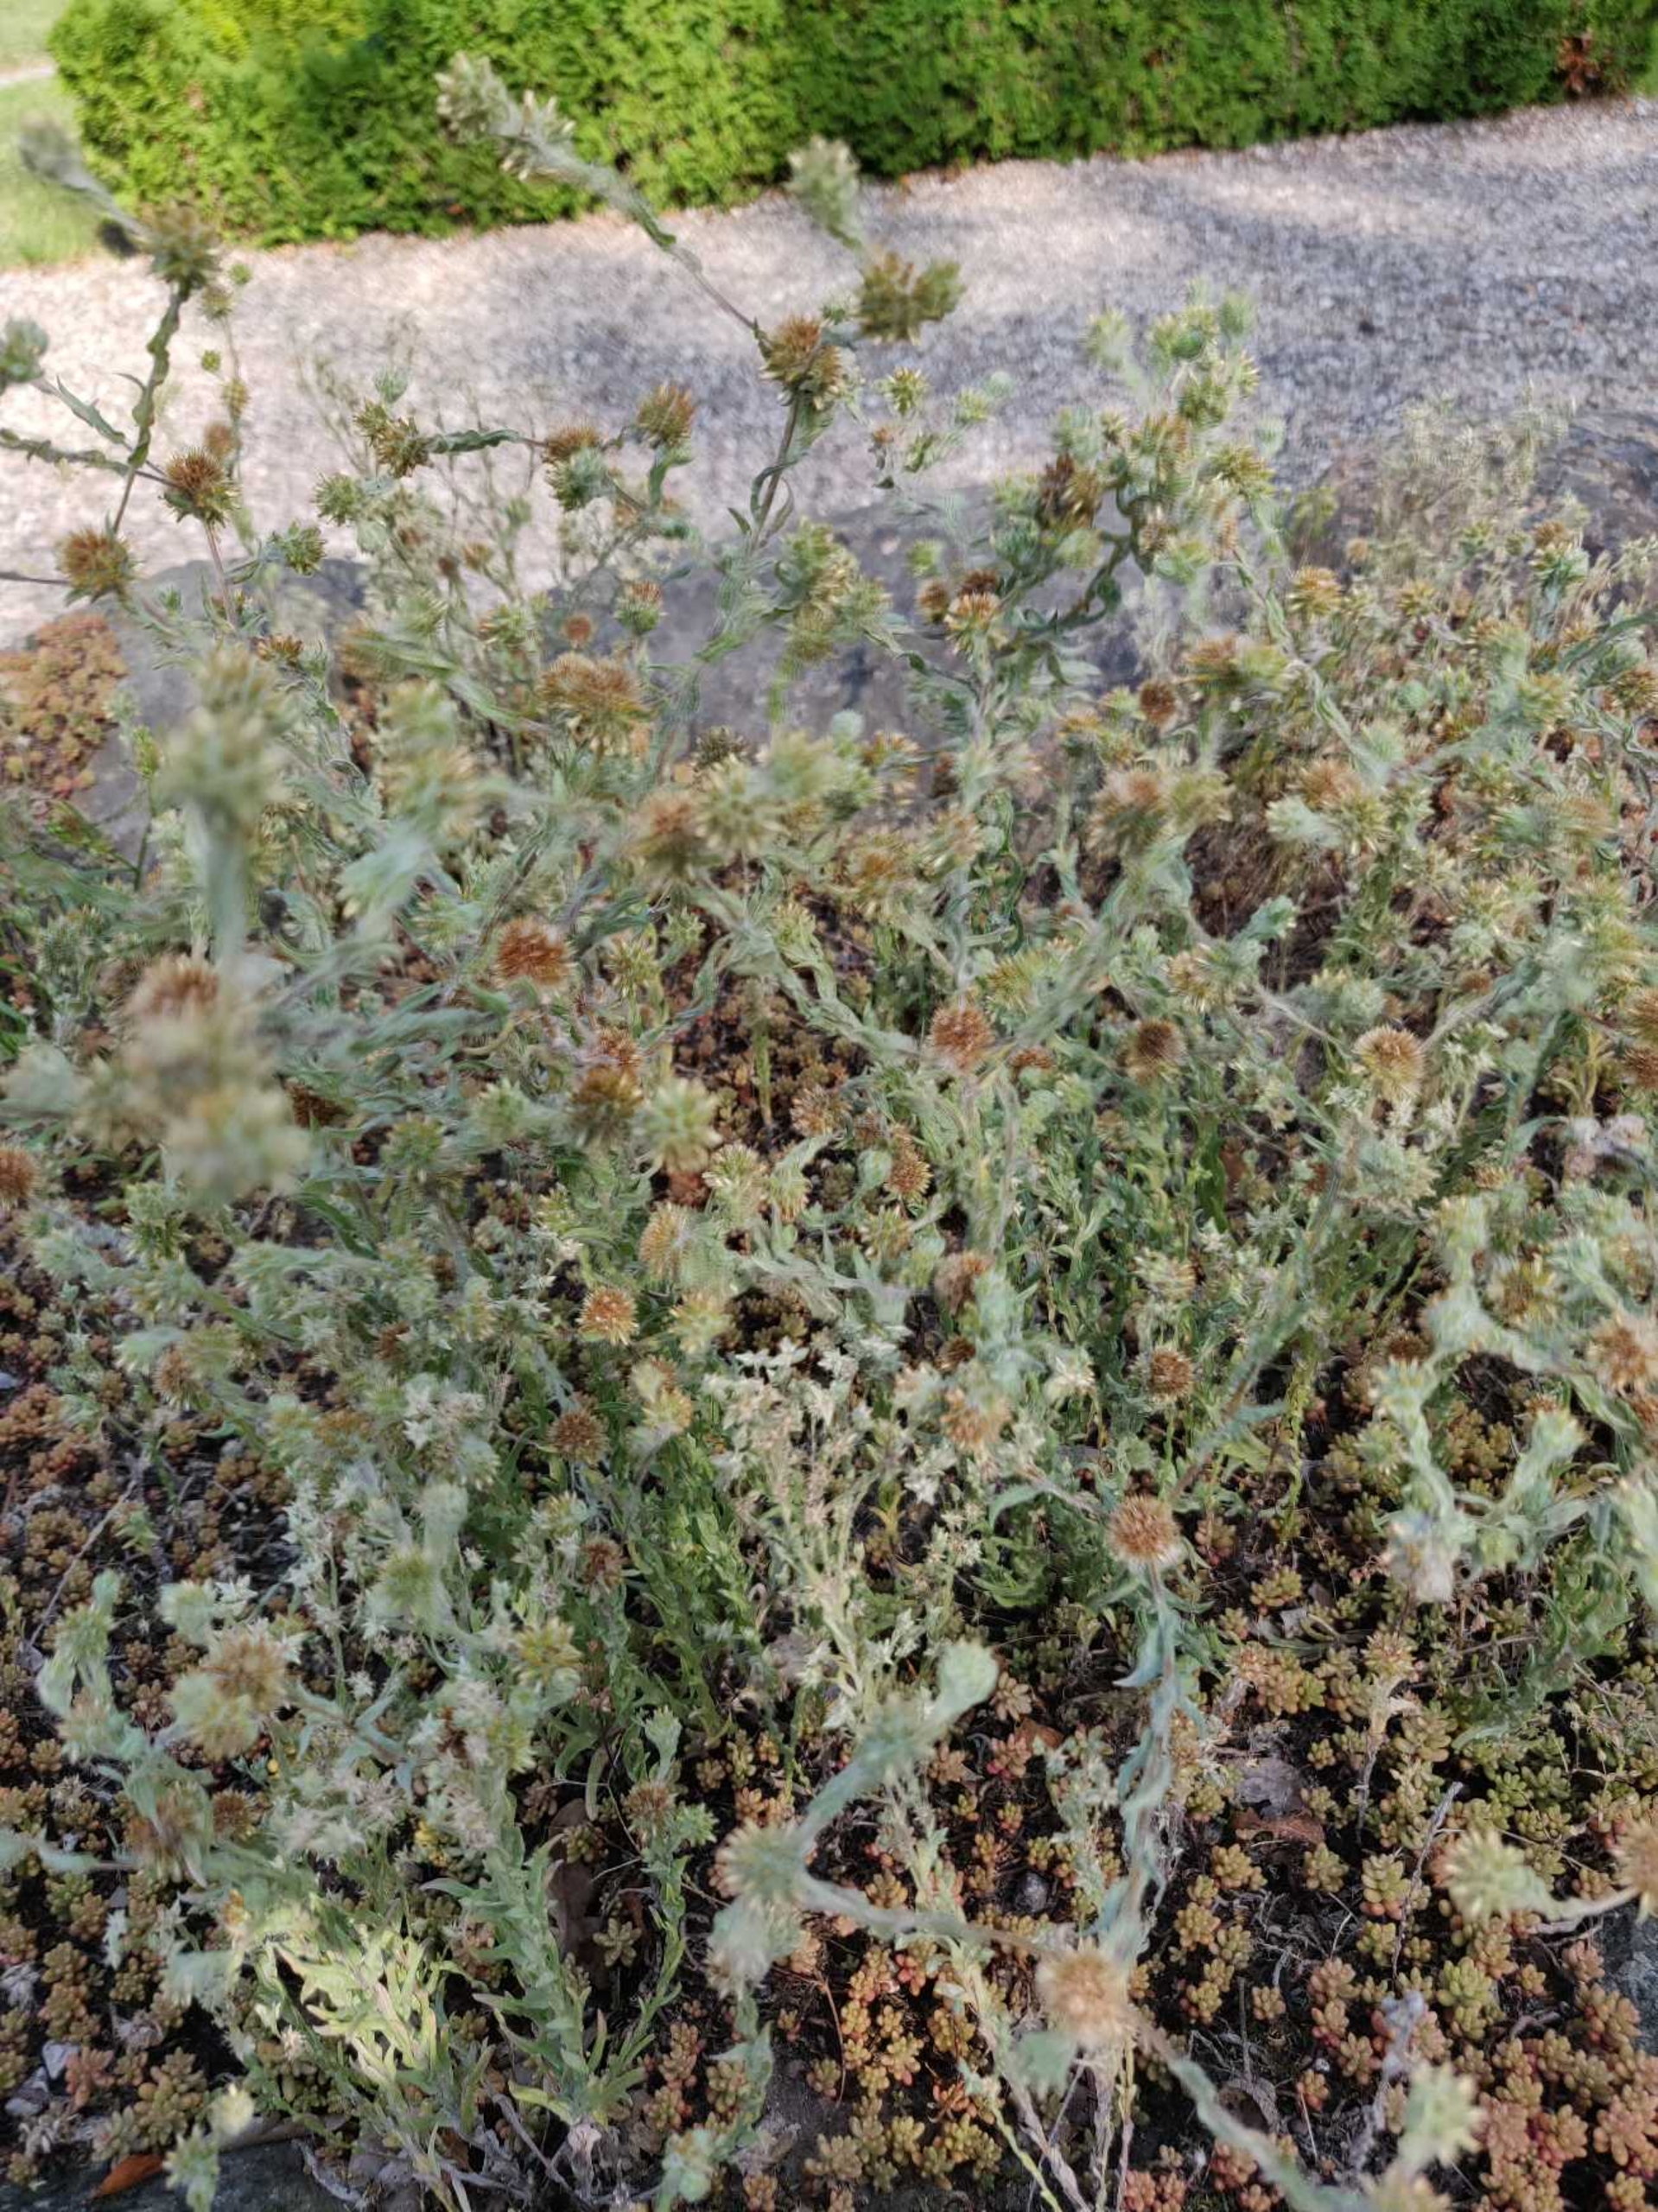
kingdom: Plantae
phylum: Tracheophyta
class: Magnoliopsida
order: Asterales
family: Asteraceae
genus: Filago
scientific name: Filago germanica
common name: Kugle-museurt
